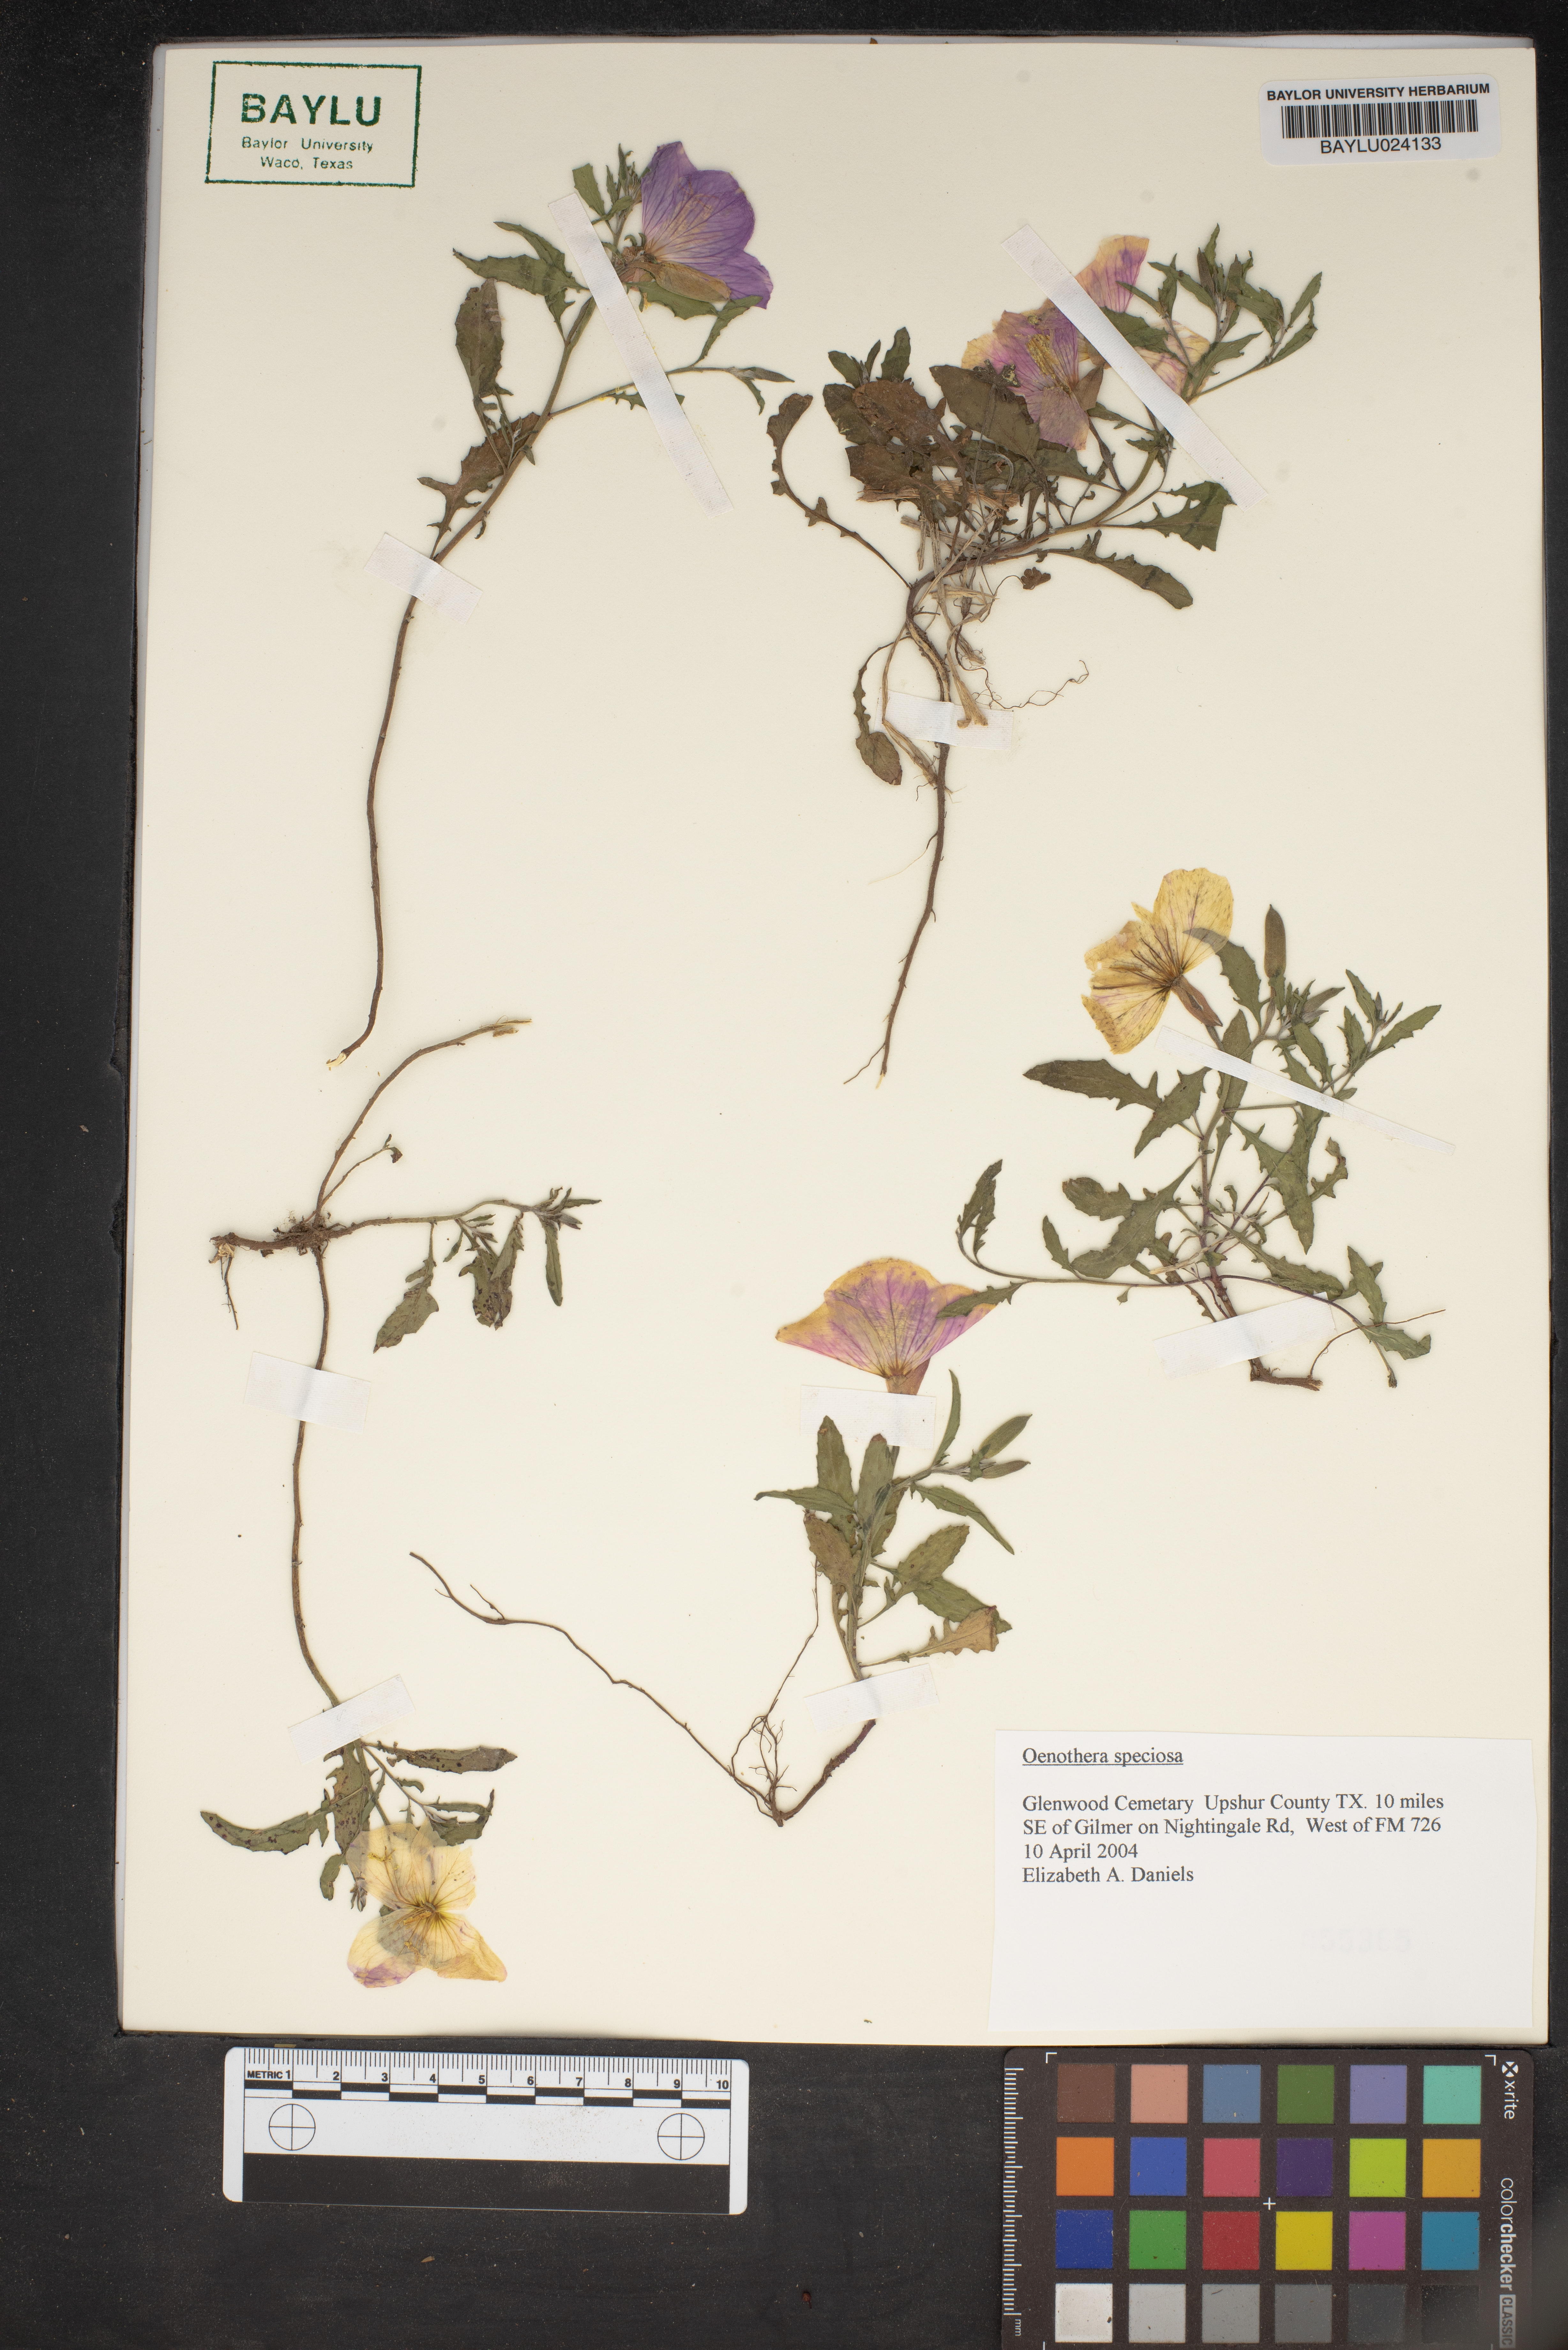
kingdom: Plantae
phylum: Tracheophyta
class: Magnoliopsida
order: Myrtales
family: Onagraceae
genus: Oenothera
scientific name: Oenothera speciosa
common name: White evening-primrose
